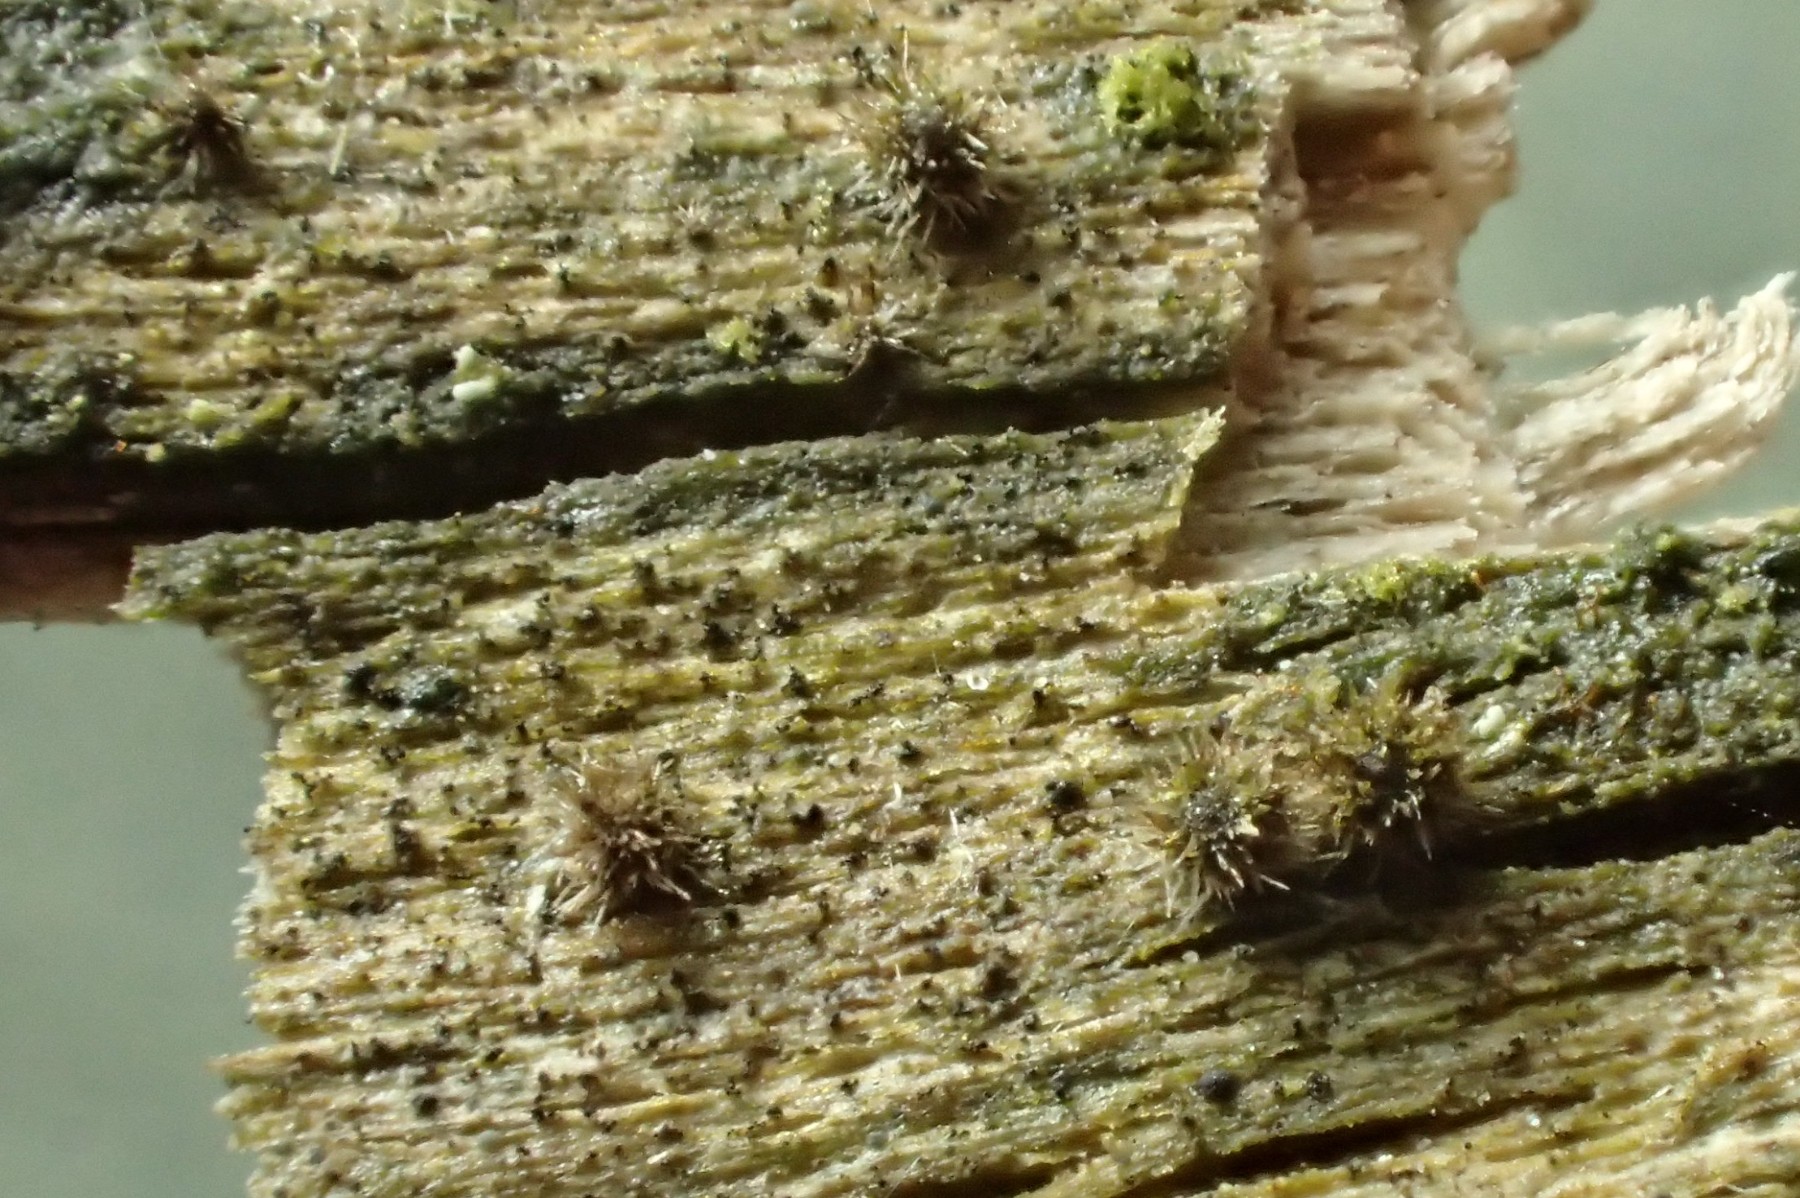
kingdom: Fungi
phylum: Ascomycota
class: Sordariomycetes
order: Sordariales
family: Helminthosphaeriaceae
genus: Echinosphaeria
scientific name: Echinosphaeria canescens
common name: brun børstekerne
